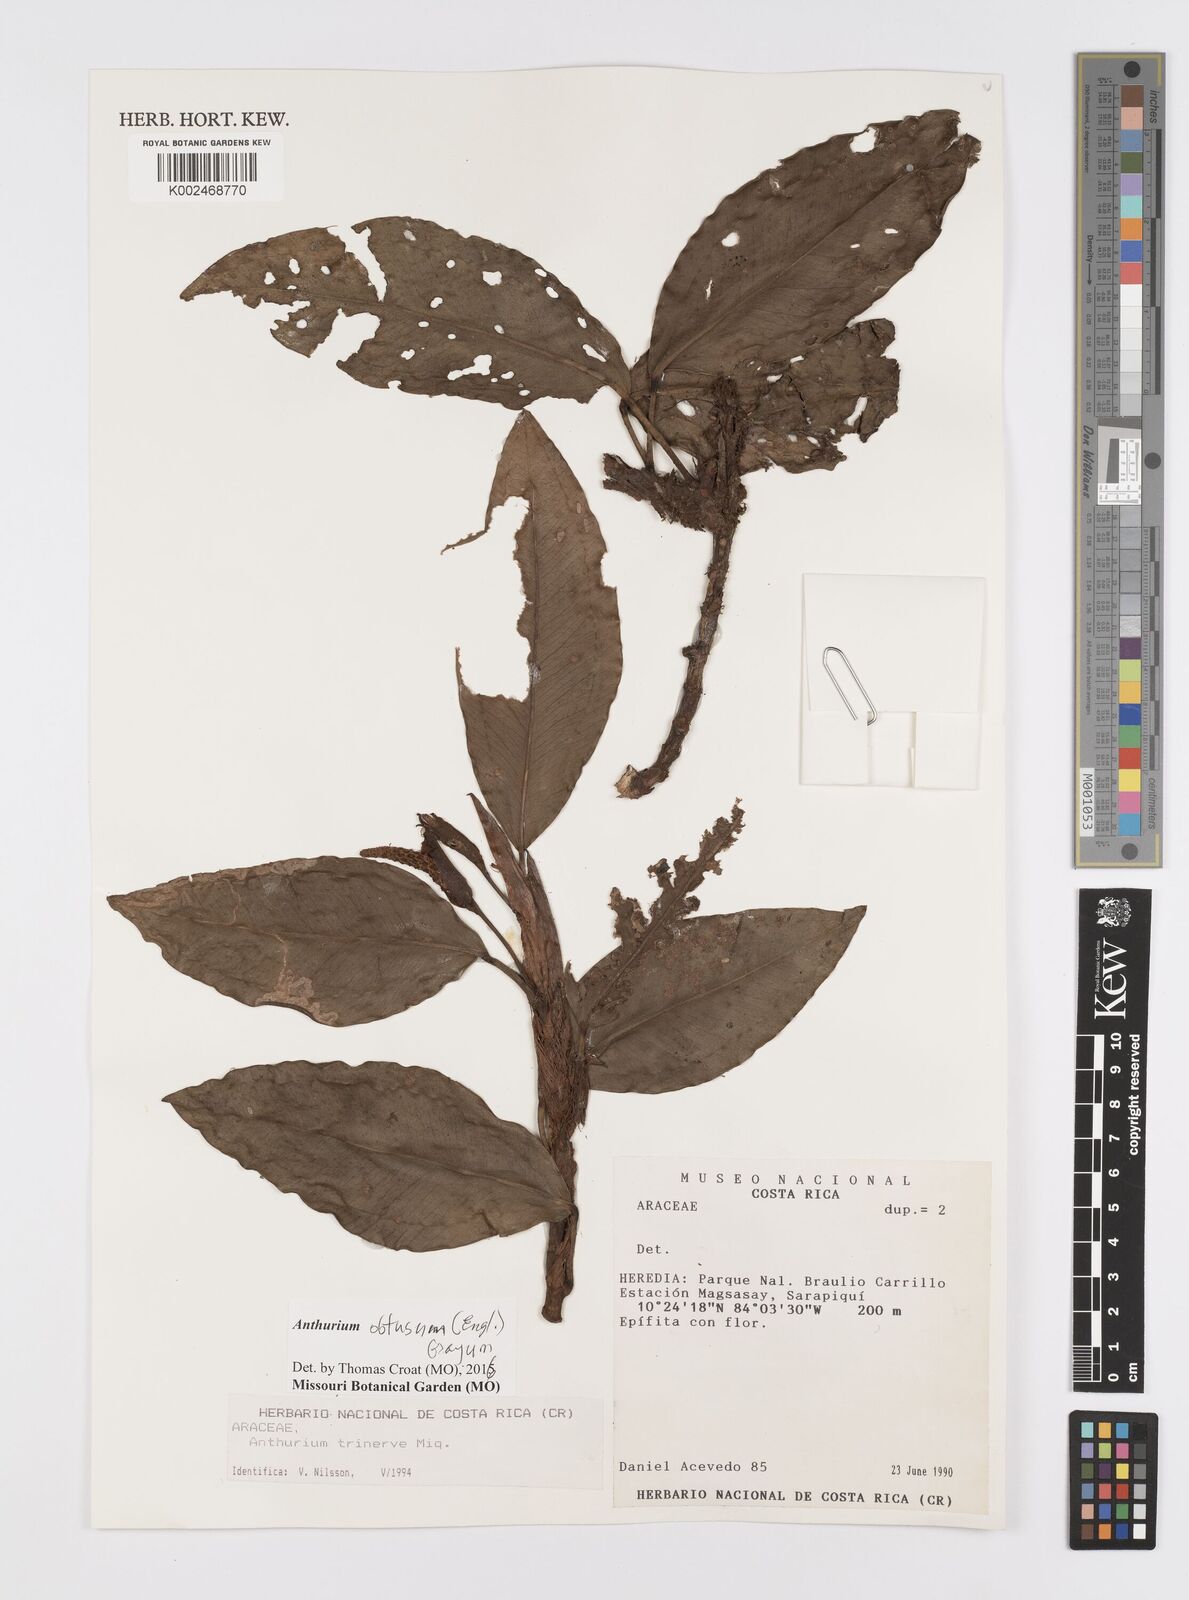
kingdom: Plantae
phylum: Tracheophyta
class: Liliopsida
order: Alismatales
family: Araceae
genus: Anthurium
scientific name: Anthurium obtusum
